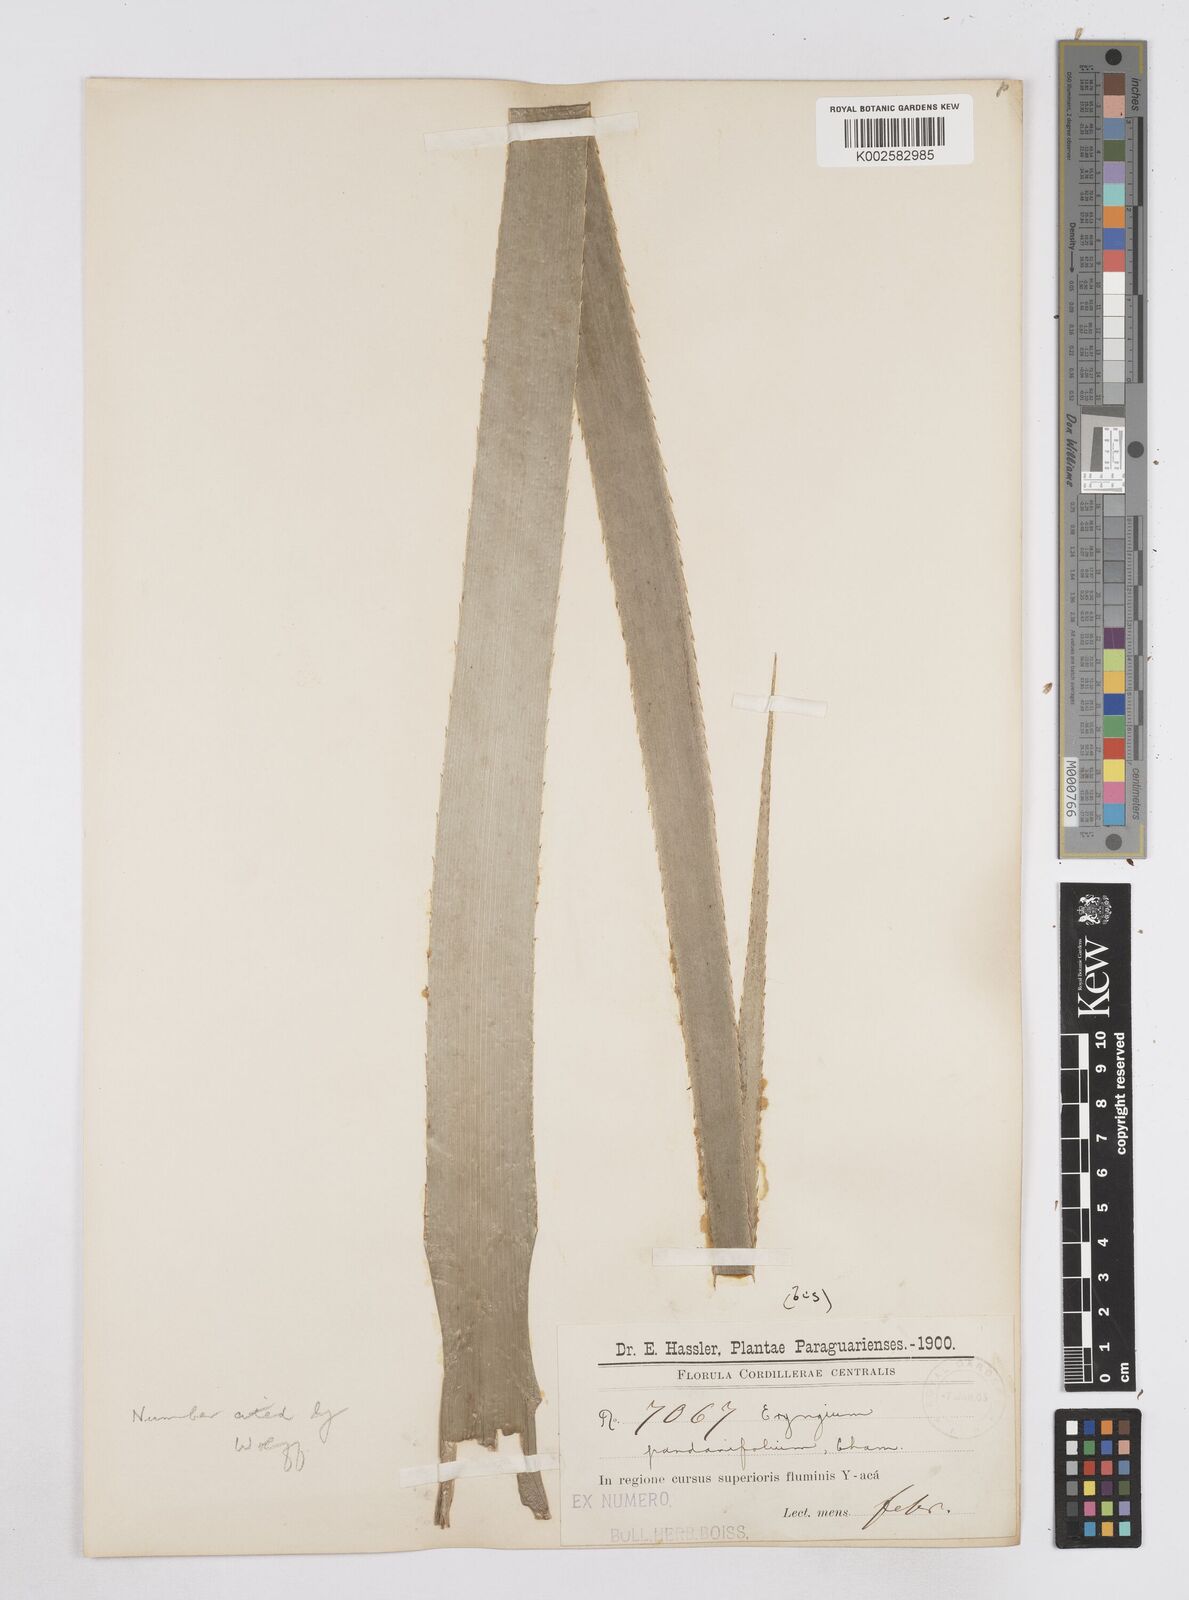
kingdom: Plantae
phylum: Tracheophyta
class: Magnoliopsida
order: Apiales
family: Apiaceae
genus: Eryngium
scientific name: Eryngium pandanifolium
